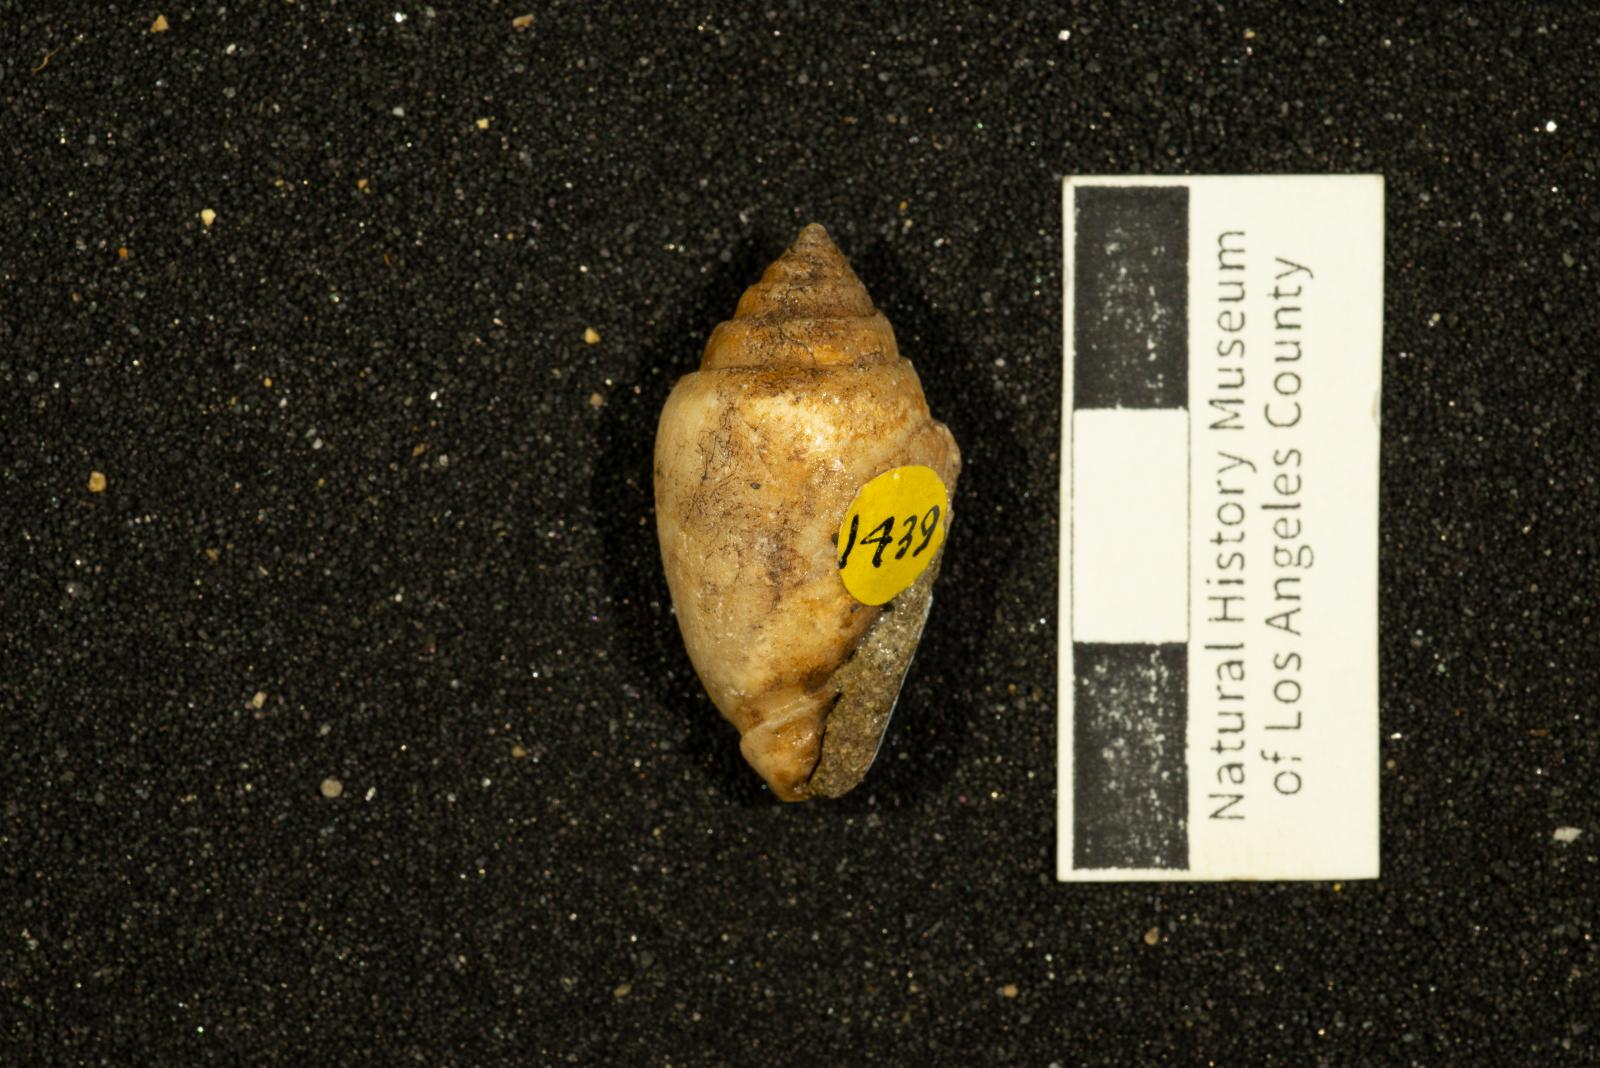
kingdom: Animalia
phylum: Mollusca
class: Gastropoda
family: Acteonellidae
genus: Acteonella
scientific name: Acteonella
